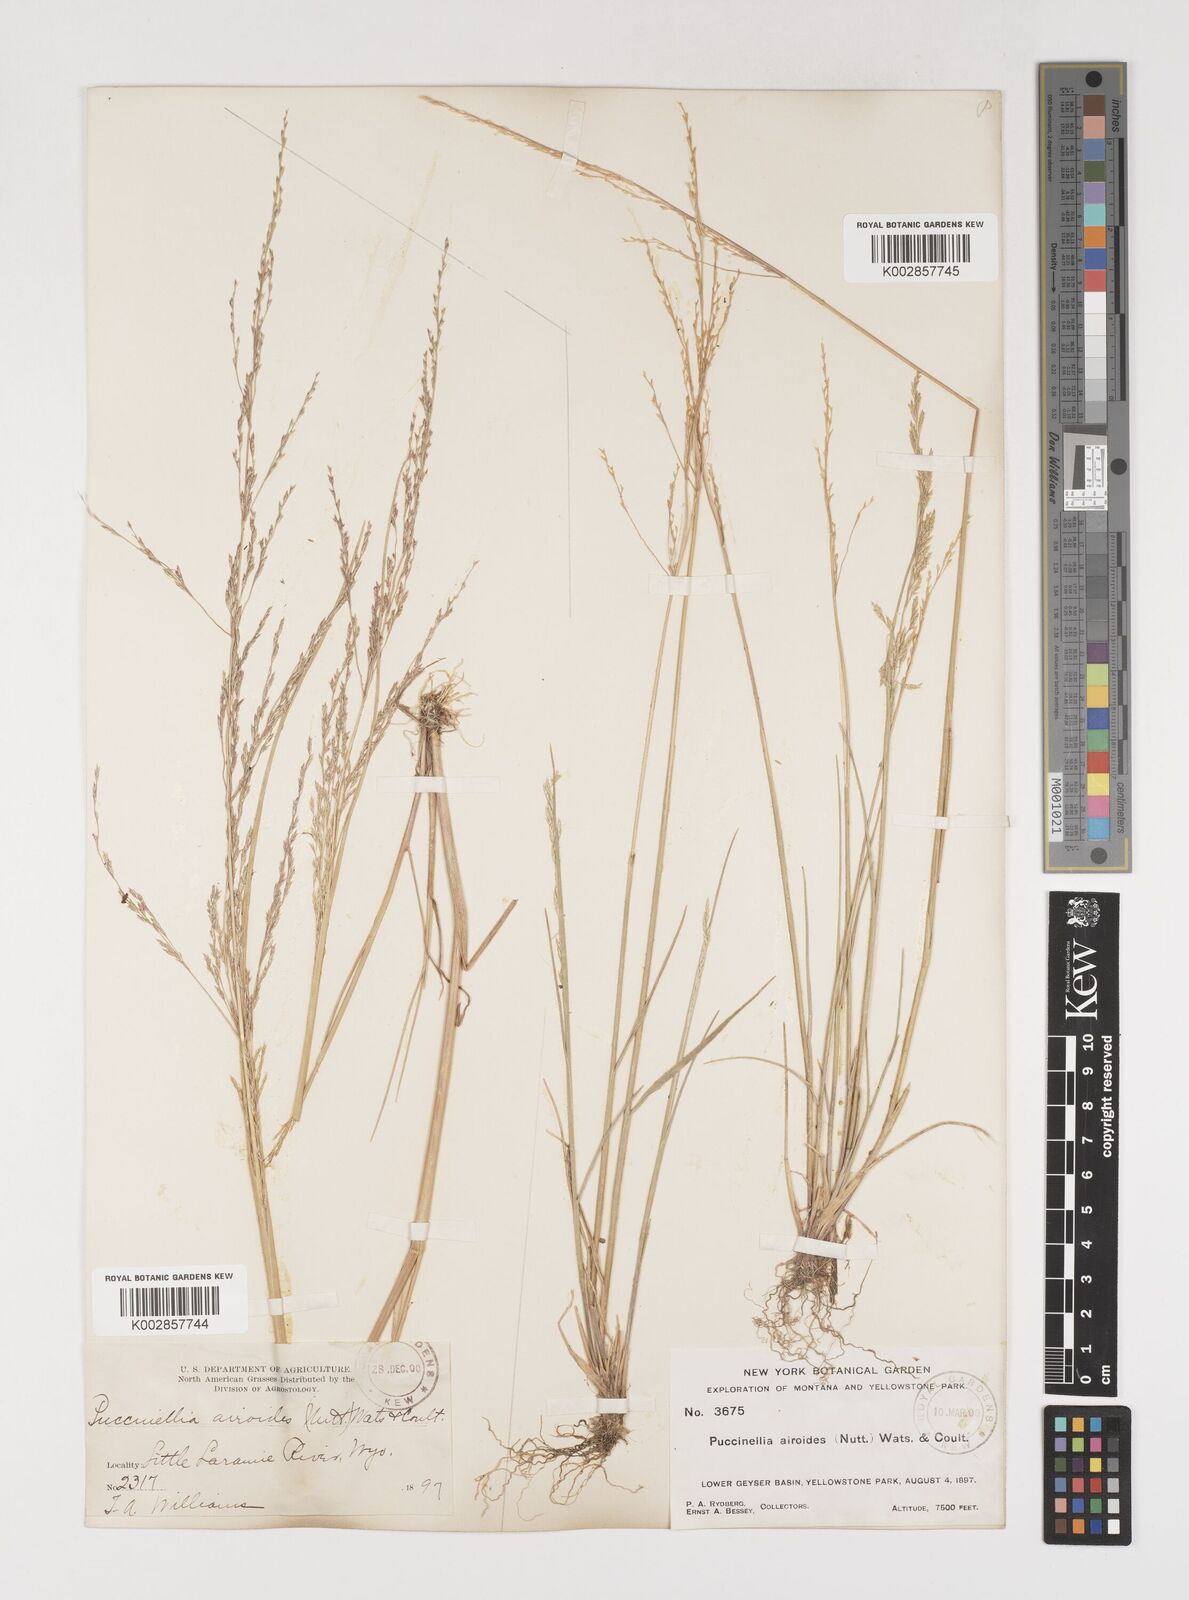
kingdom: Plantae
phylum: Tracheophyta
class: Liliopsida
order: Poales
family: Poaceae
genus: Puccinellia
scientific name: Puccinellia nuttalliana
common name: Nuttall's alkali grass
